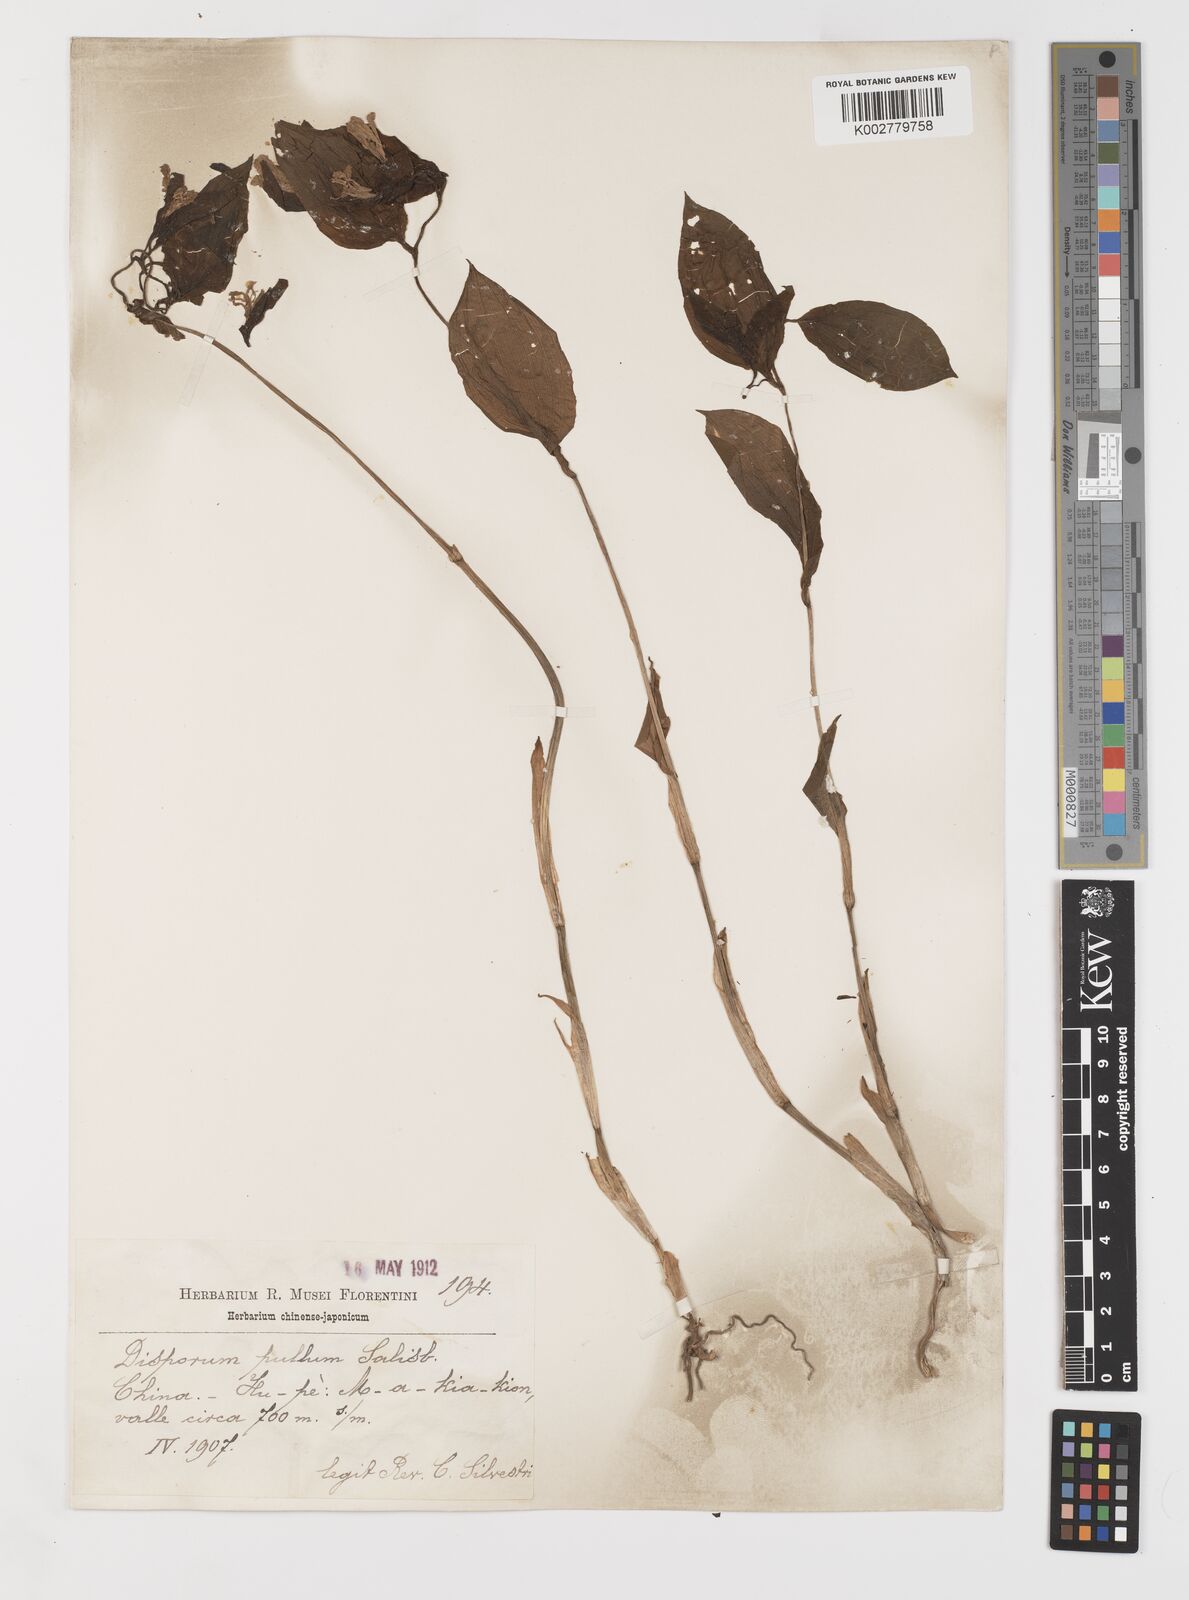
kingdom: Plantae
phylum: Tracheophyta
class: Liliopsida
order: Liliales
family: Colchicaceae
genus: Disporum
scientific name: Disporum sessile
